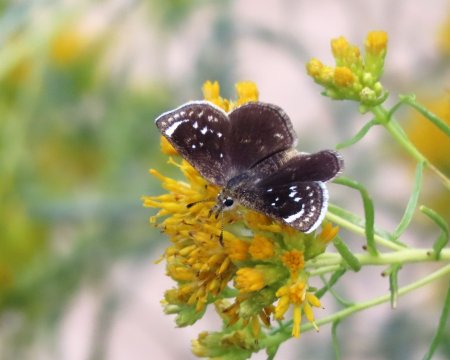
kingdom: Animalia
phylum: Arthropoda
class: Insecta
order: Lepidoptera
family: Hesperiidae
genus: Pholisora
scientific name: Pholisora libya
